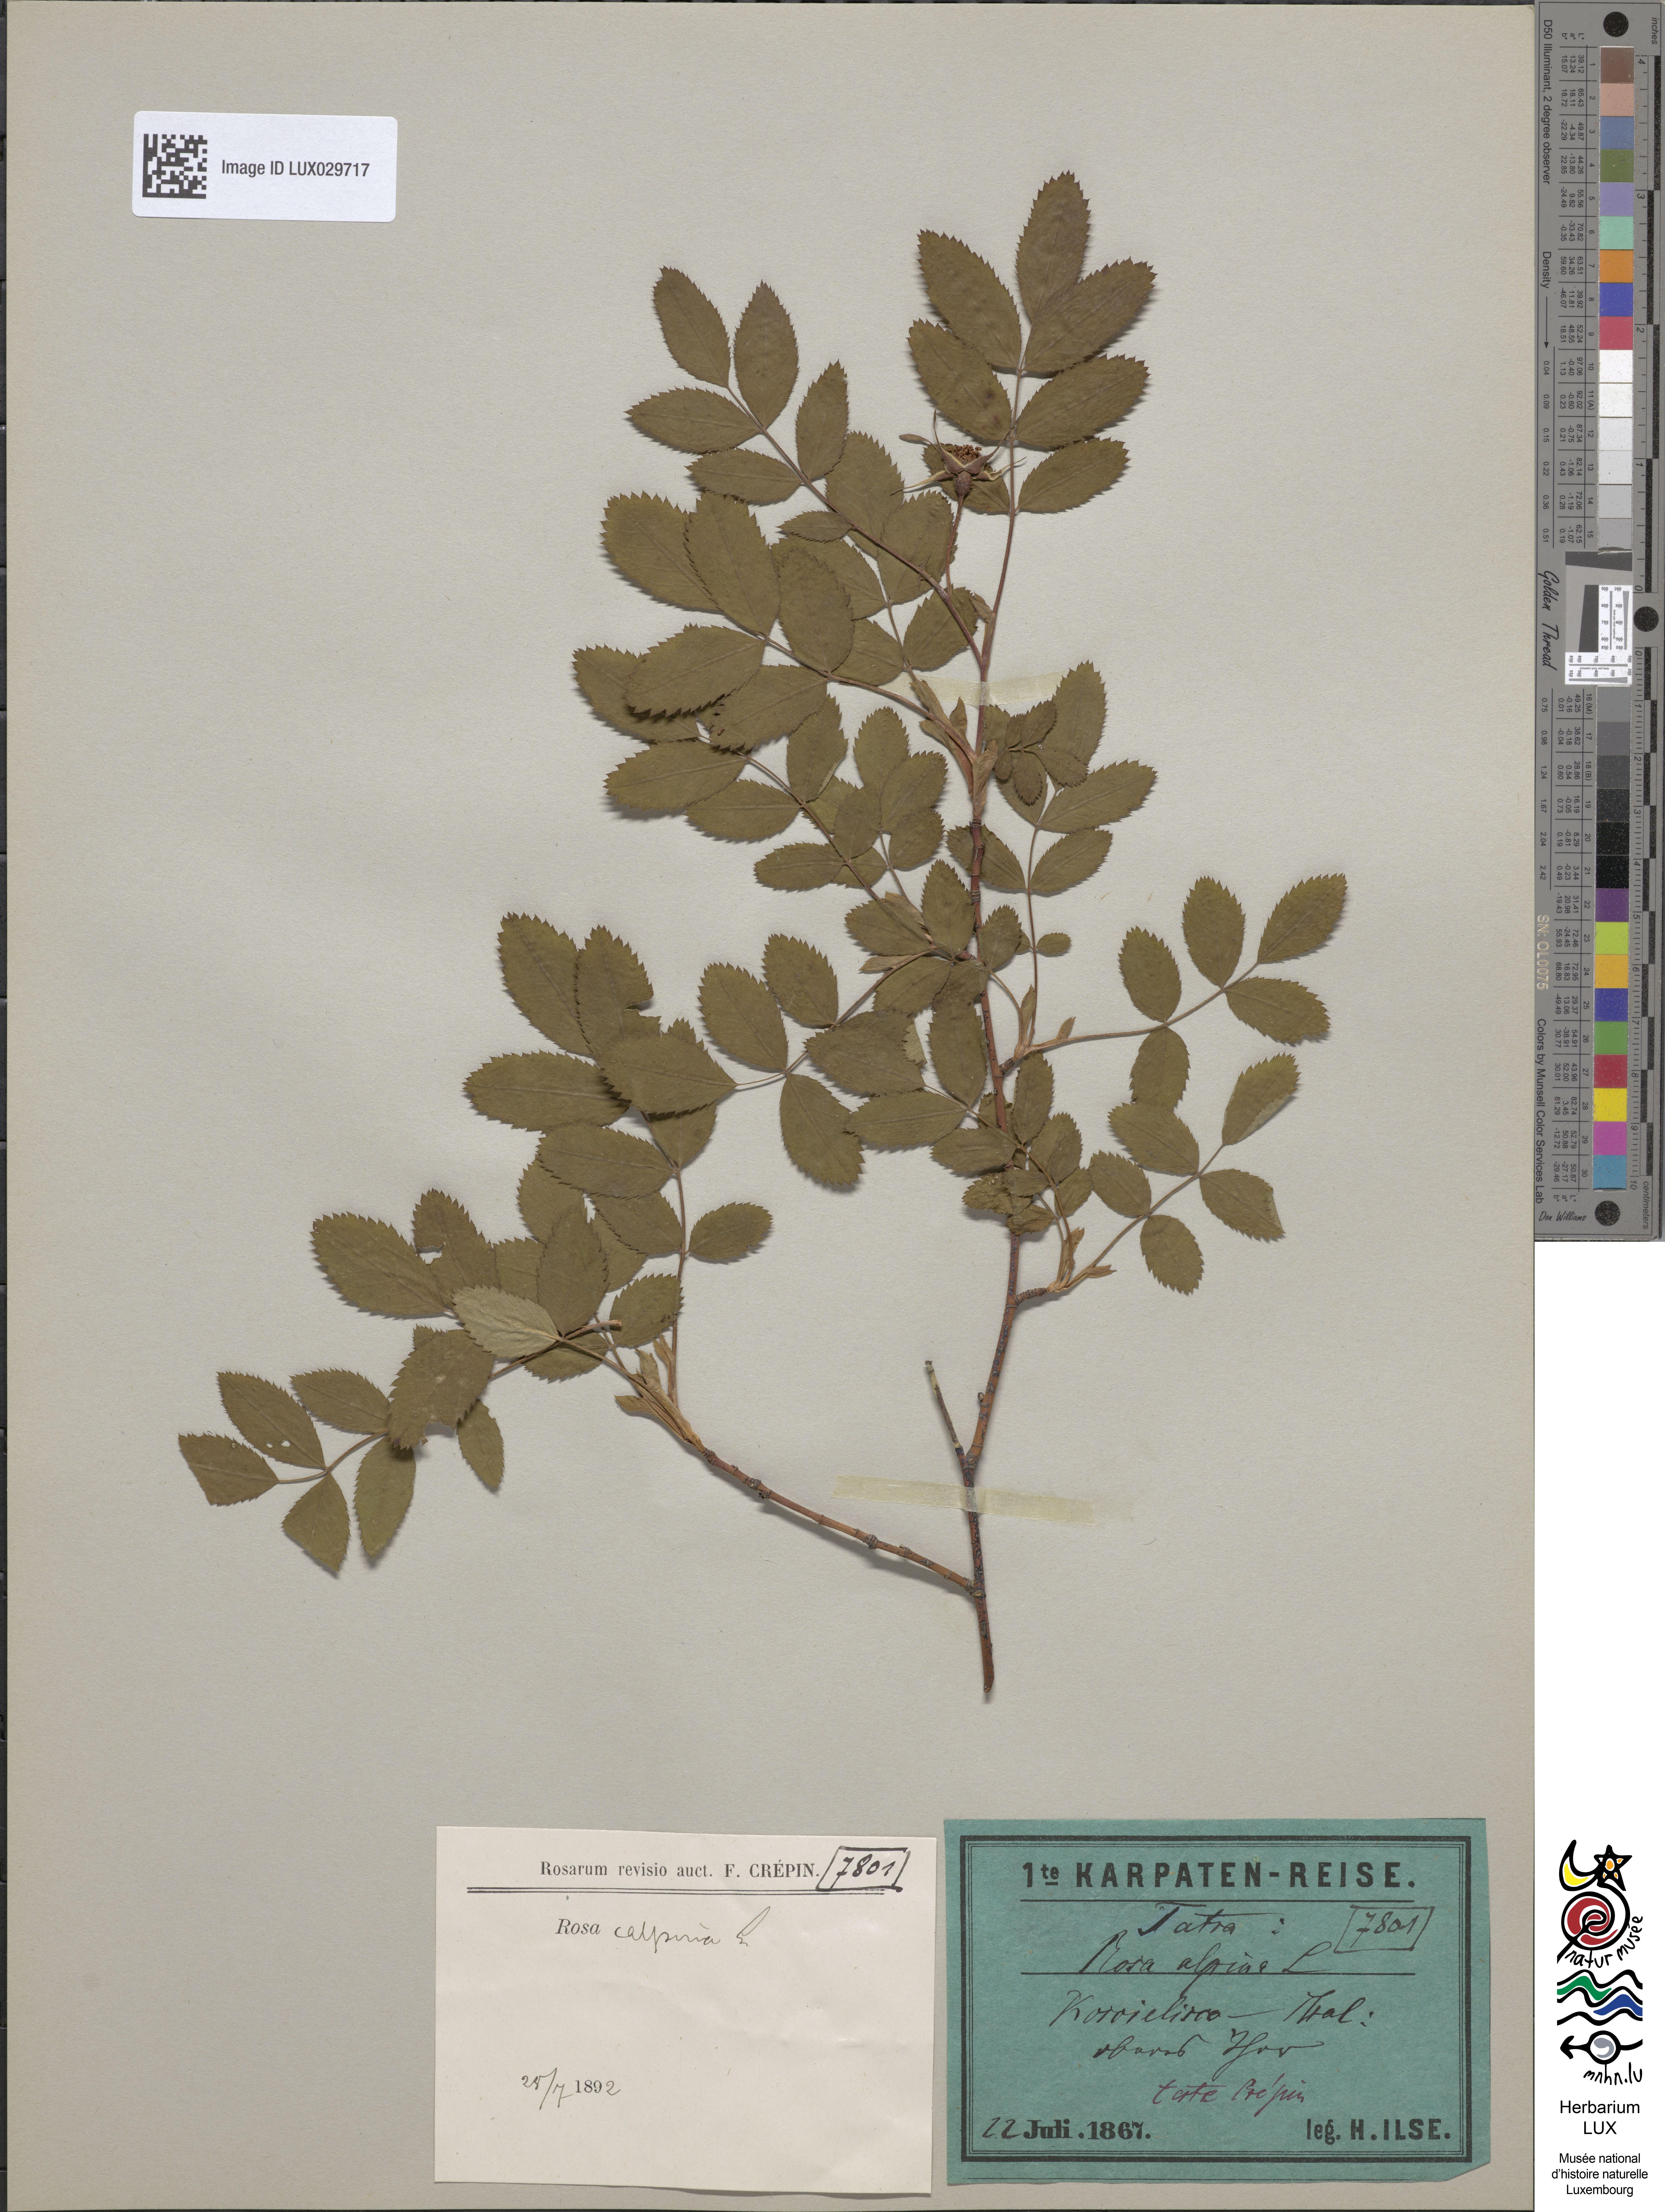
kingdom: Plantae
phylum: Tracheophyta
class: Magnoliopsida
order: Rosales
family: Rosaceae
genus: Rosa
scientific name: Rosa pendulina
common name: Alpine rose
